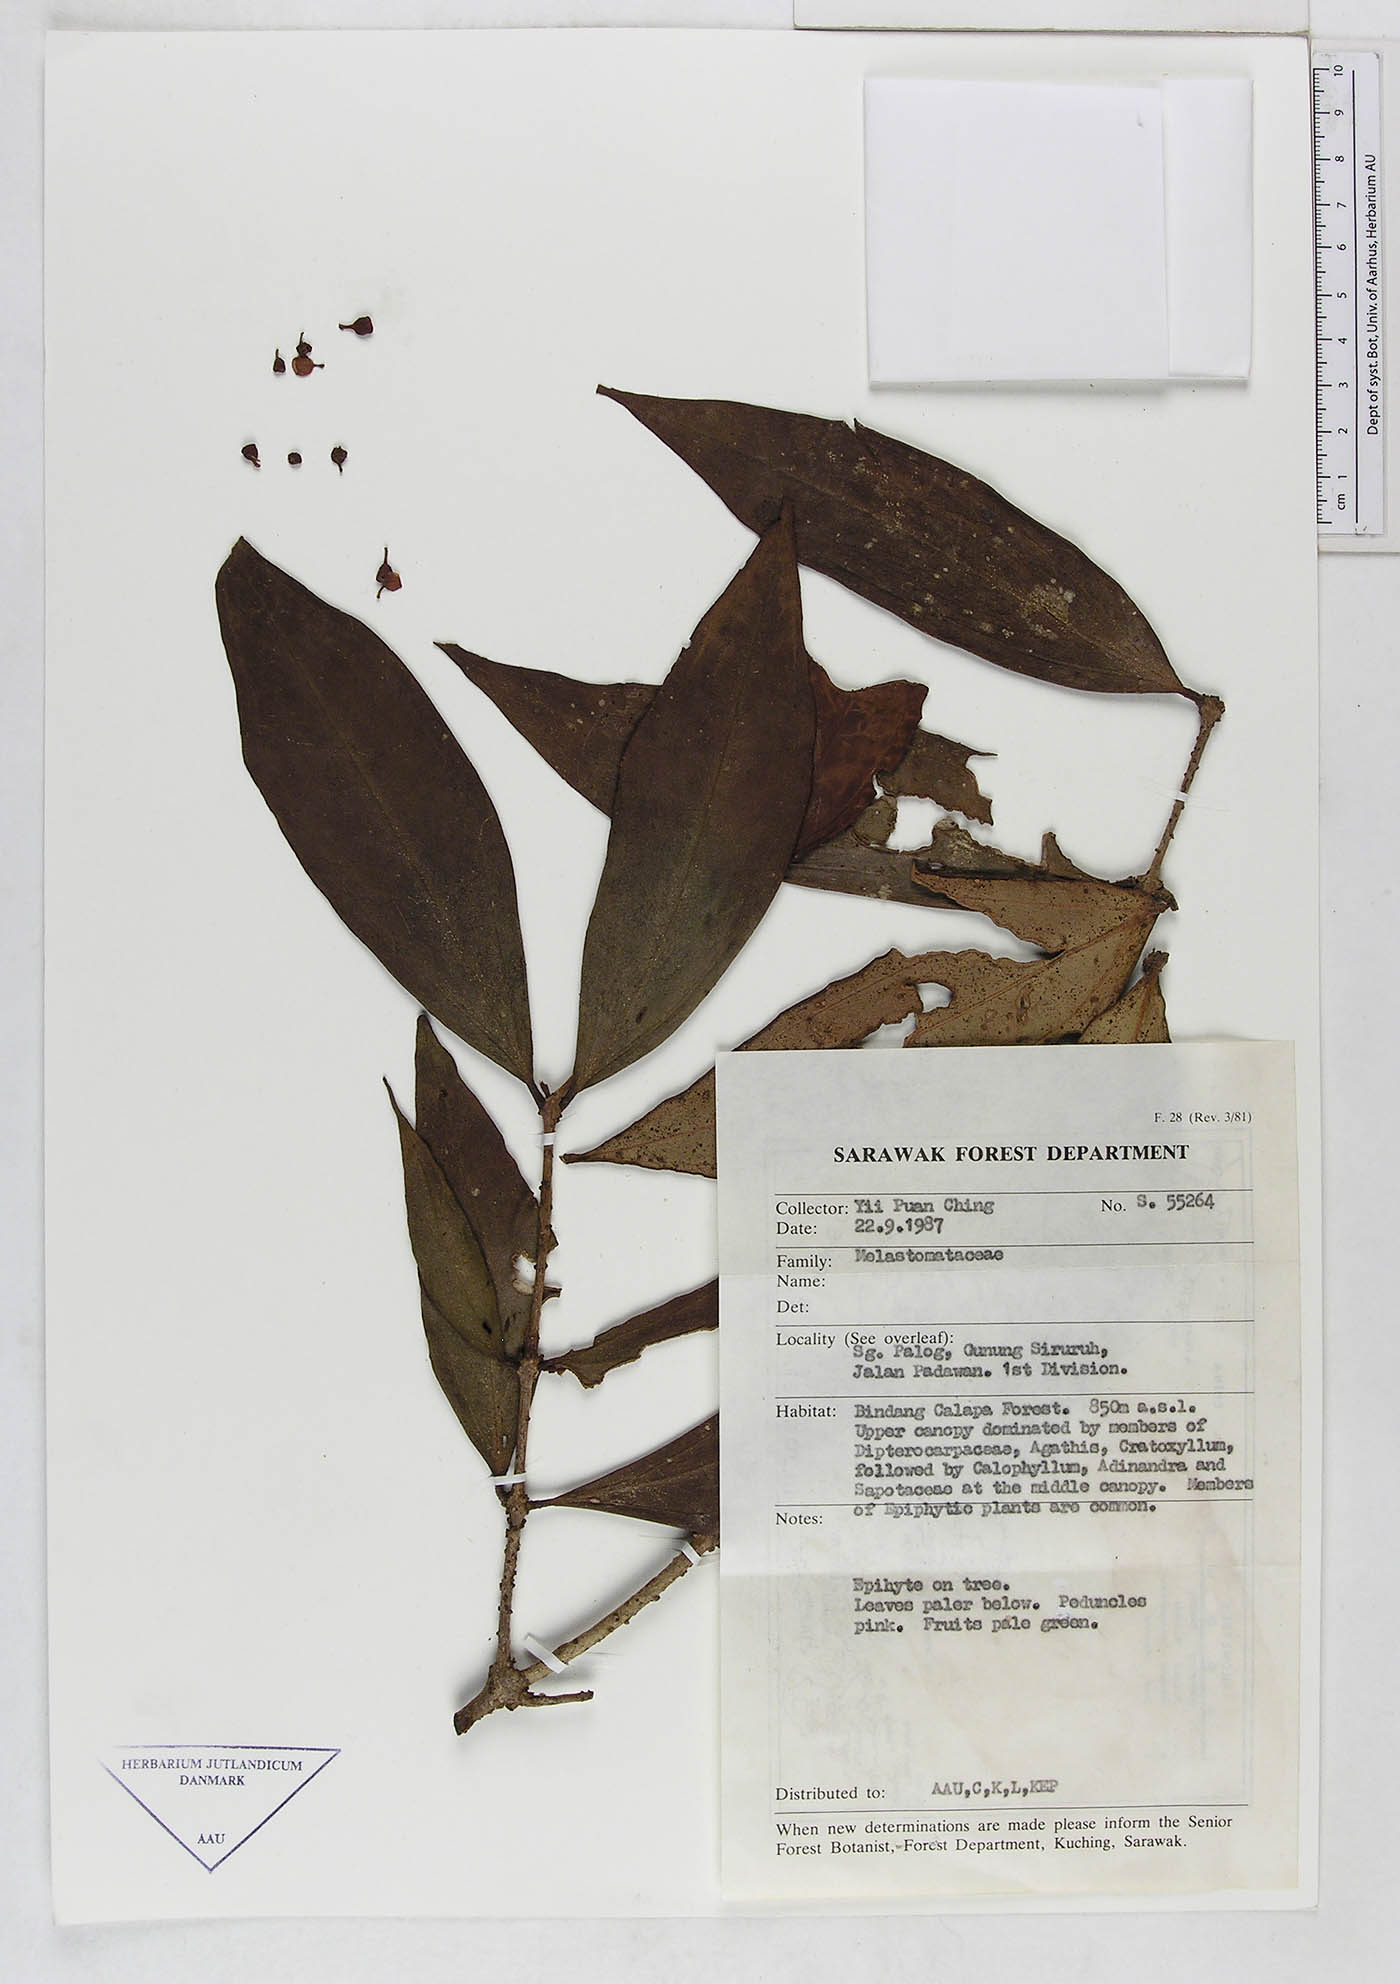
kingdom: Plantae
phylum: Tracheophyta
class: Magnoliopsida
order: Myrtales
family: Melastomataceae
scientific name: Melastomataceae
